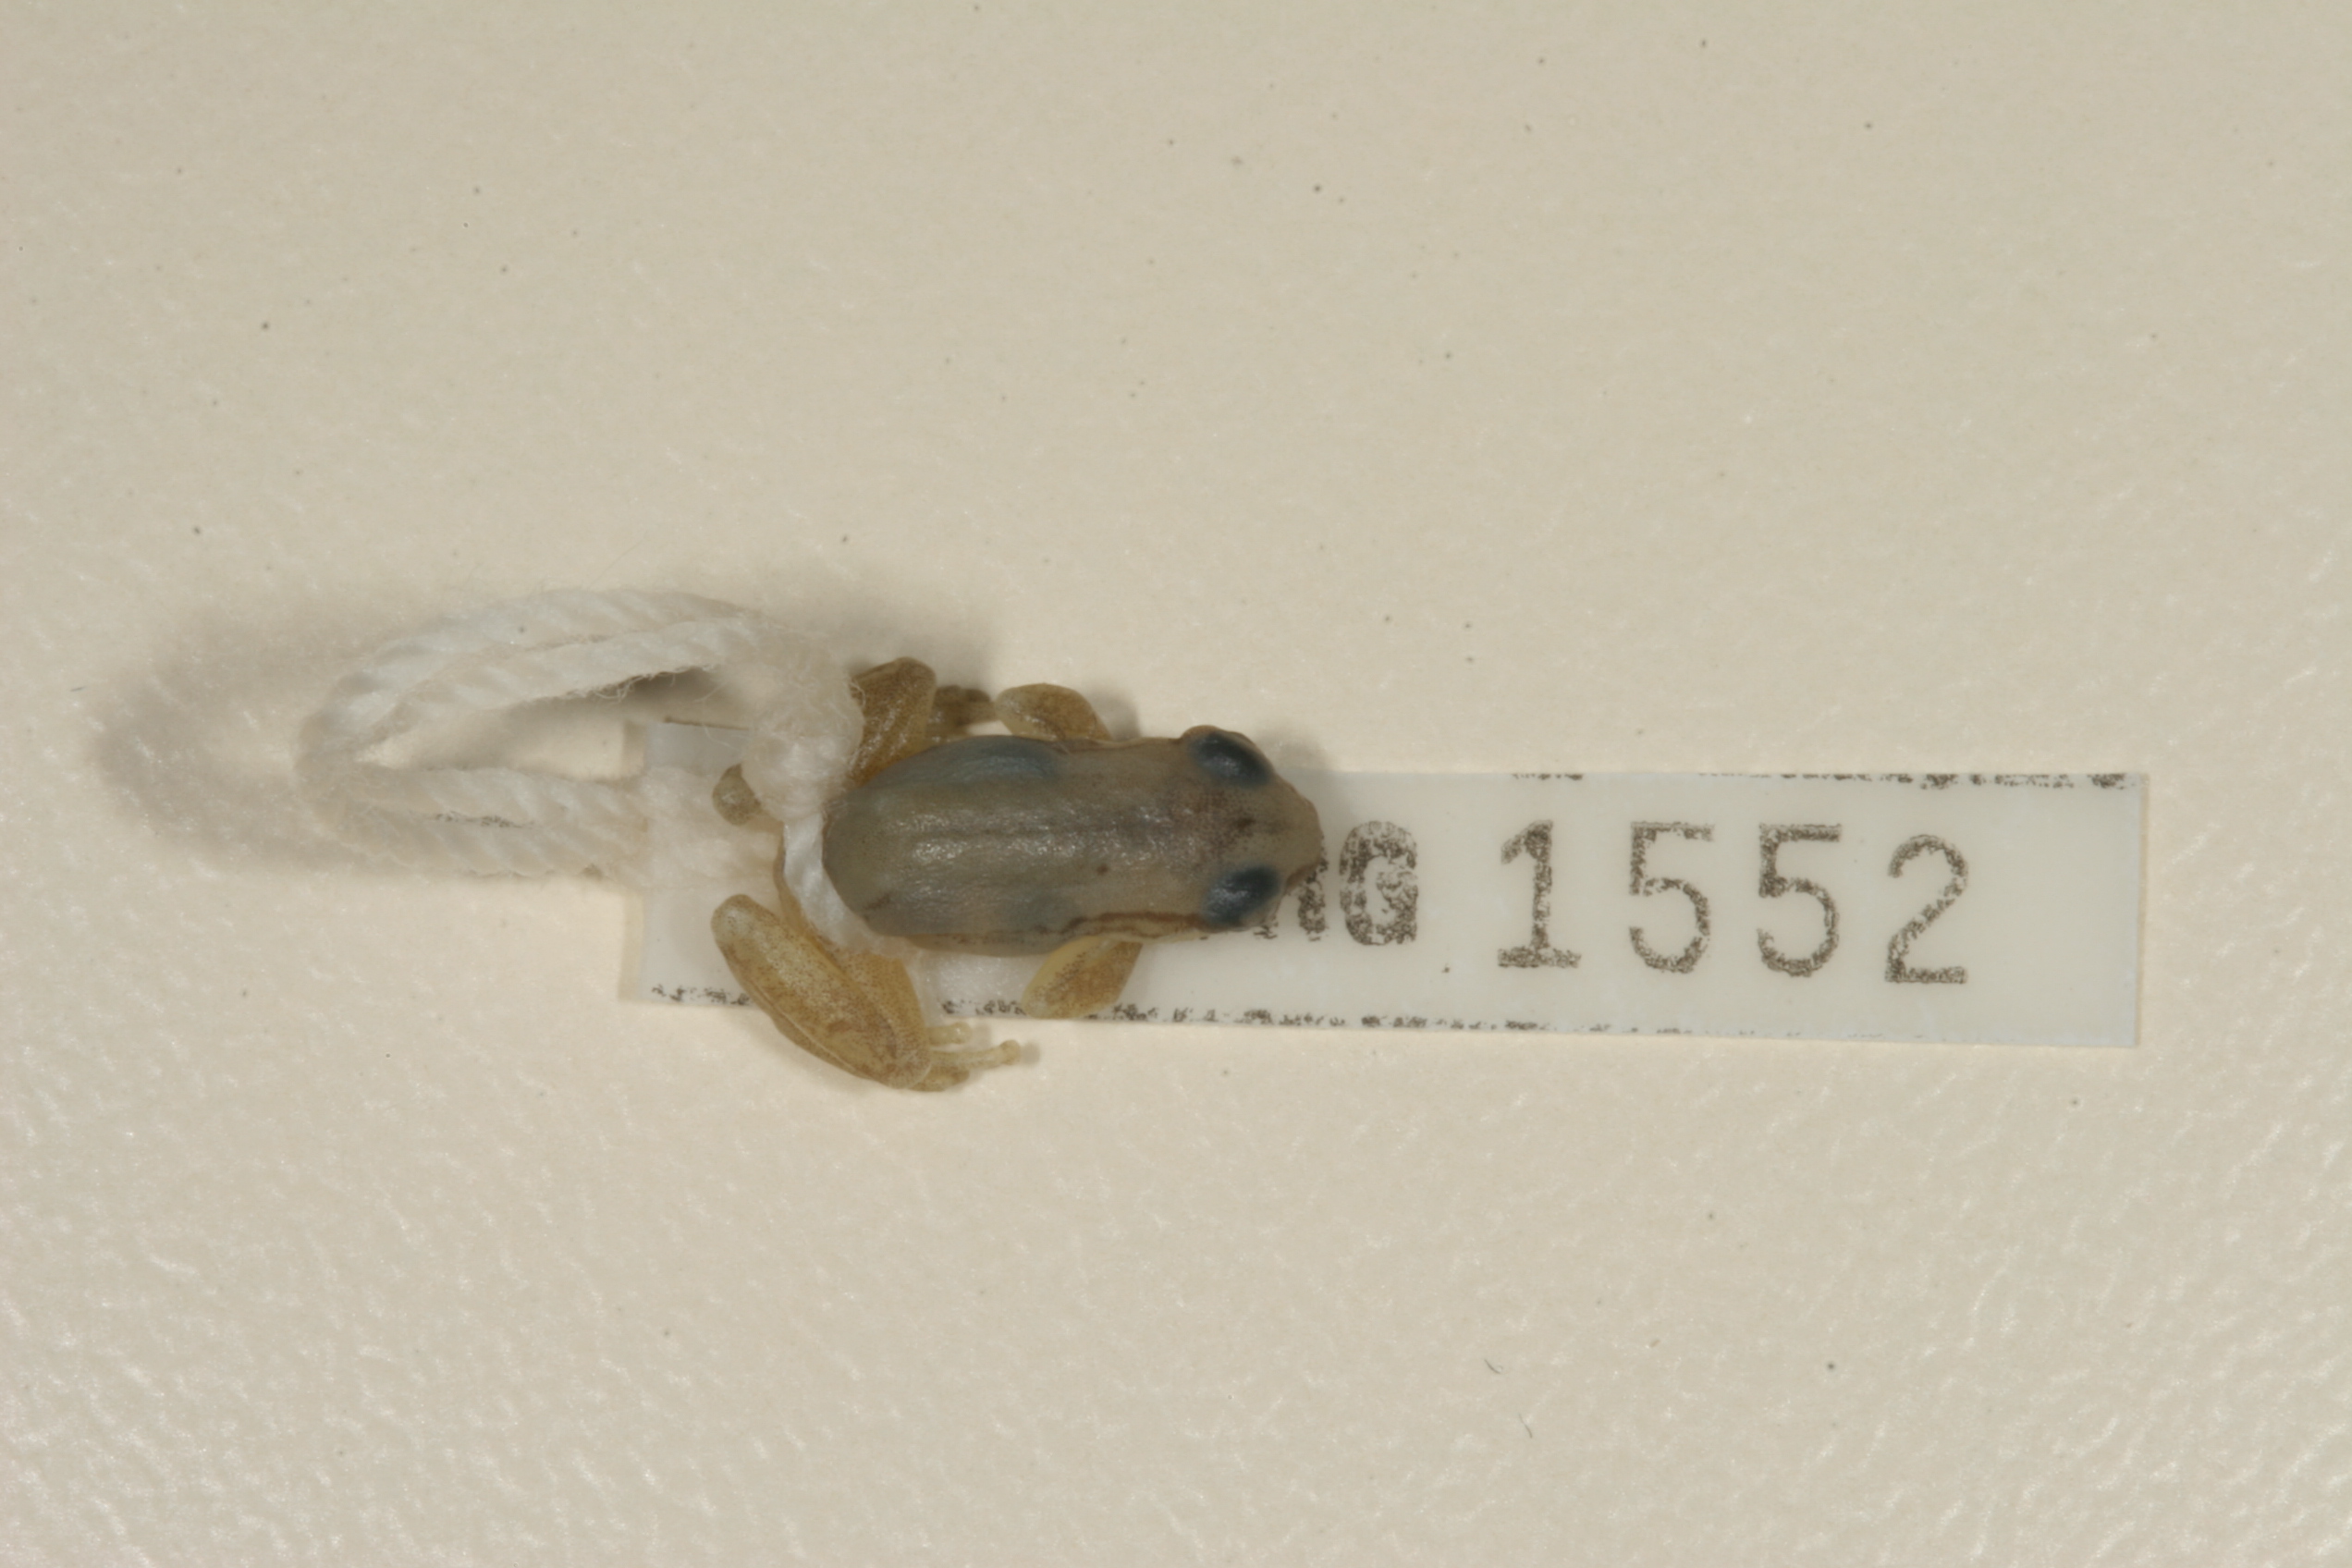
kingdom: Animalia
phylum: Chordata
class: Amphibia
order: Anura
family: Hyperoliidae
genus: Hyperolius
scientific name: Hyperolius marmoratus
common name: Painted reed frog
